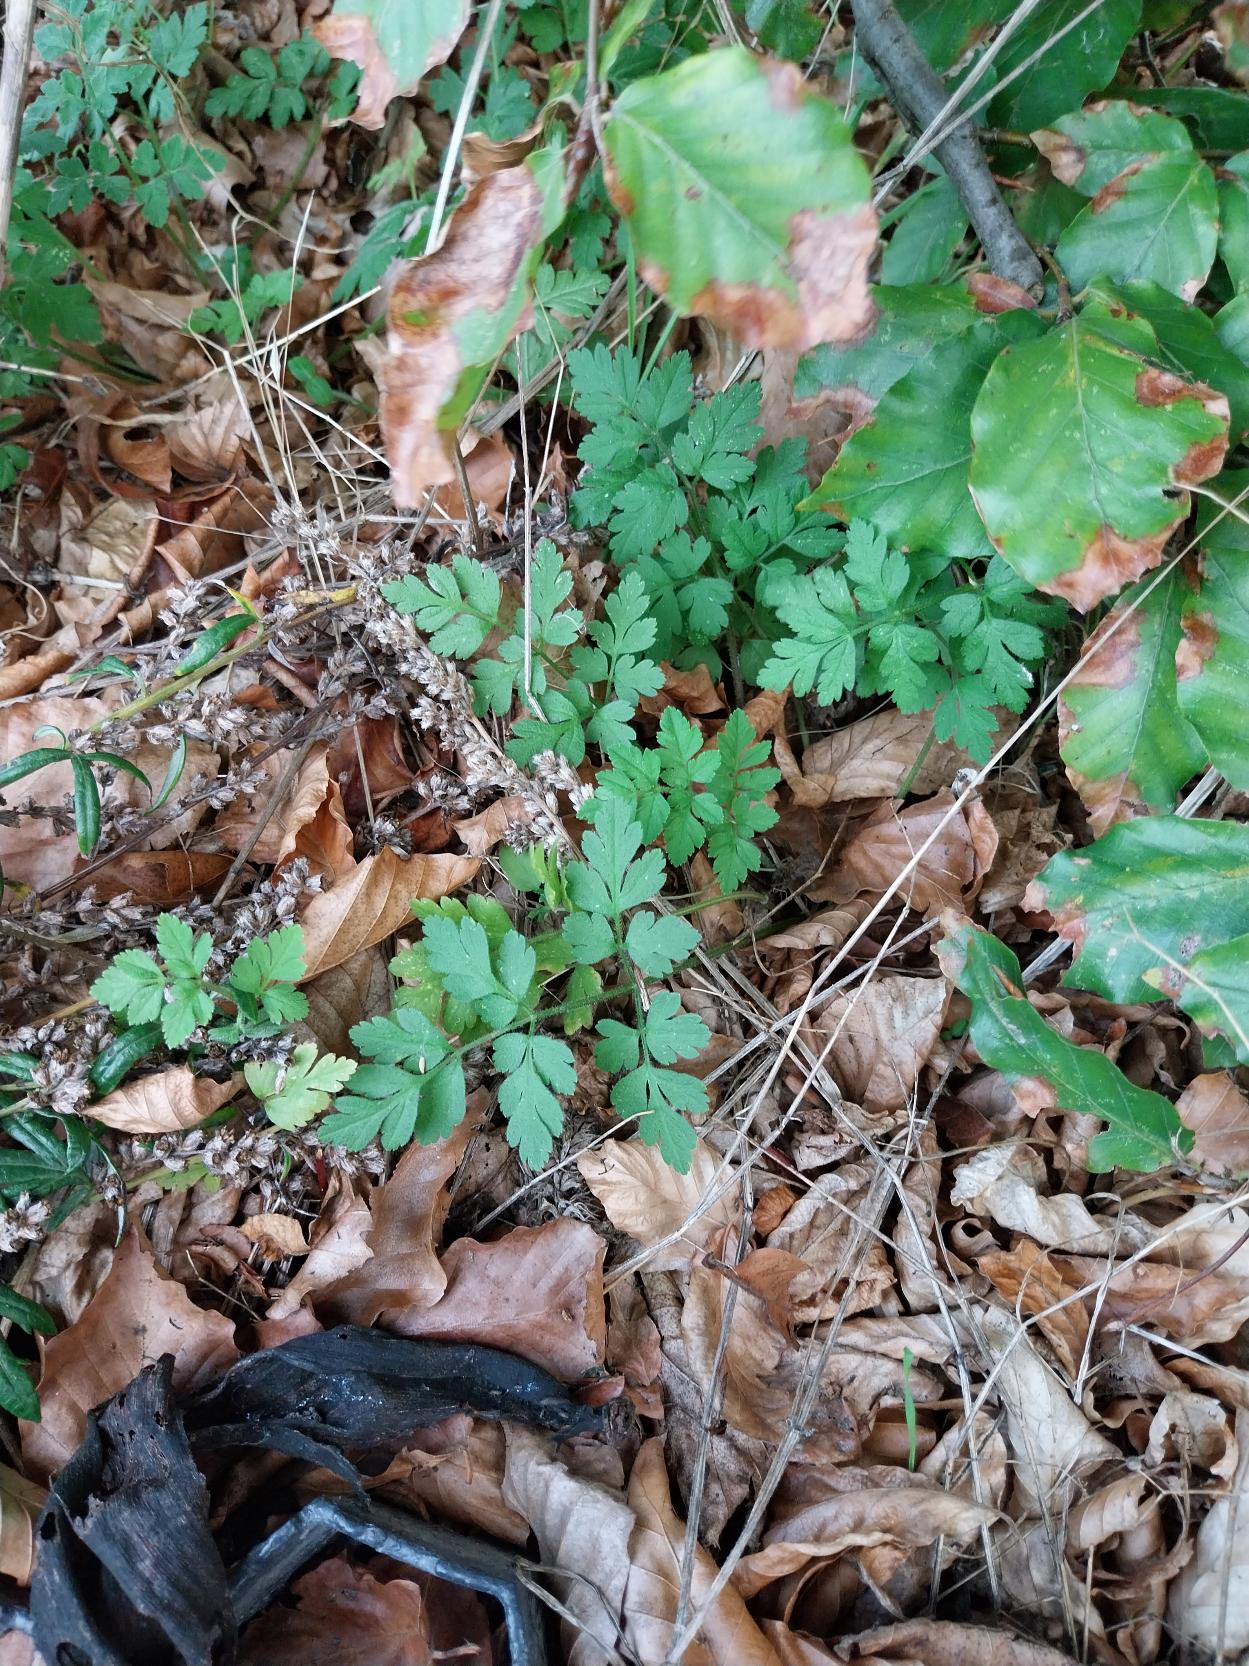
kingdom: Plantae
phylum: Tracheophyta
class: Magnoliopsida
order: Apiales
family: Apiaceae
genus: Chaerophyllum
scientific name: Chaerophyllum temulum
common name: Almindelig hulsvøb
